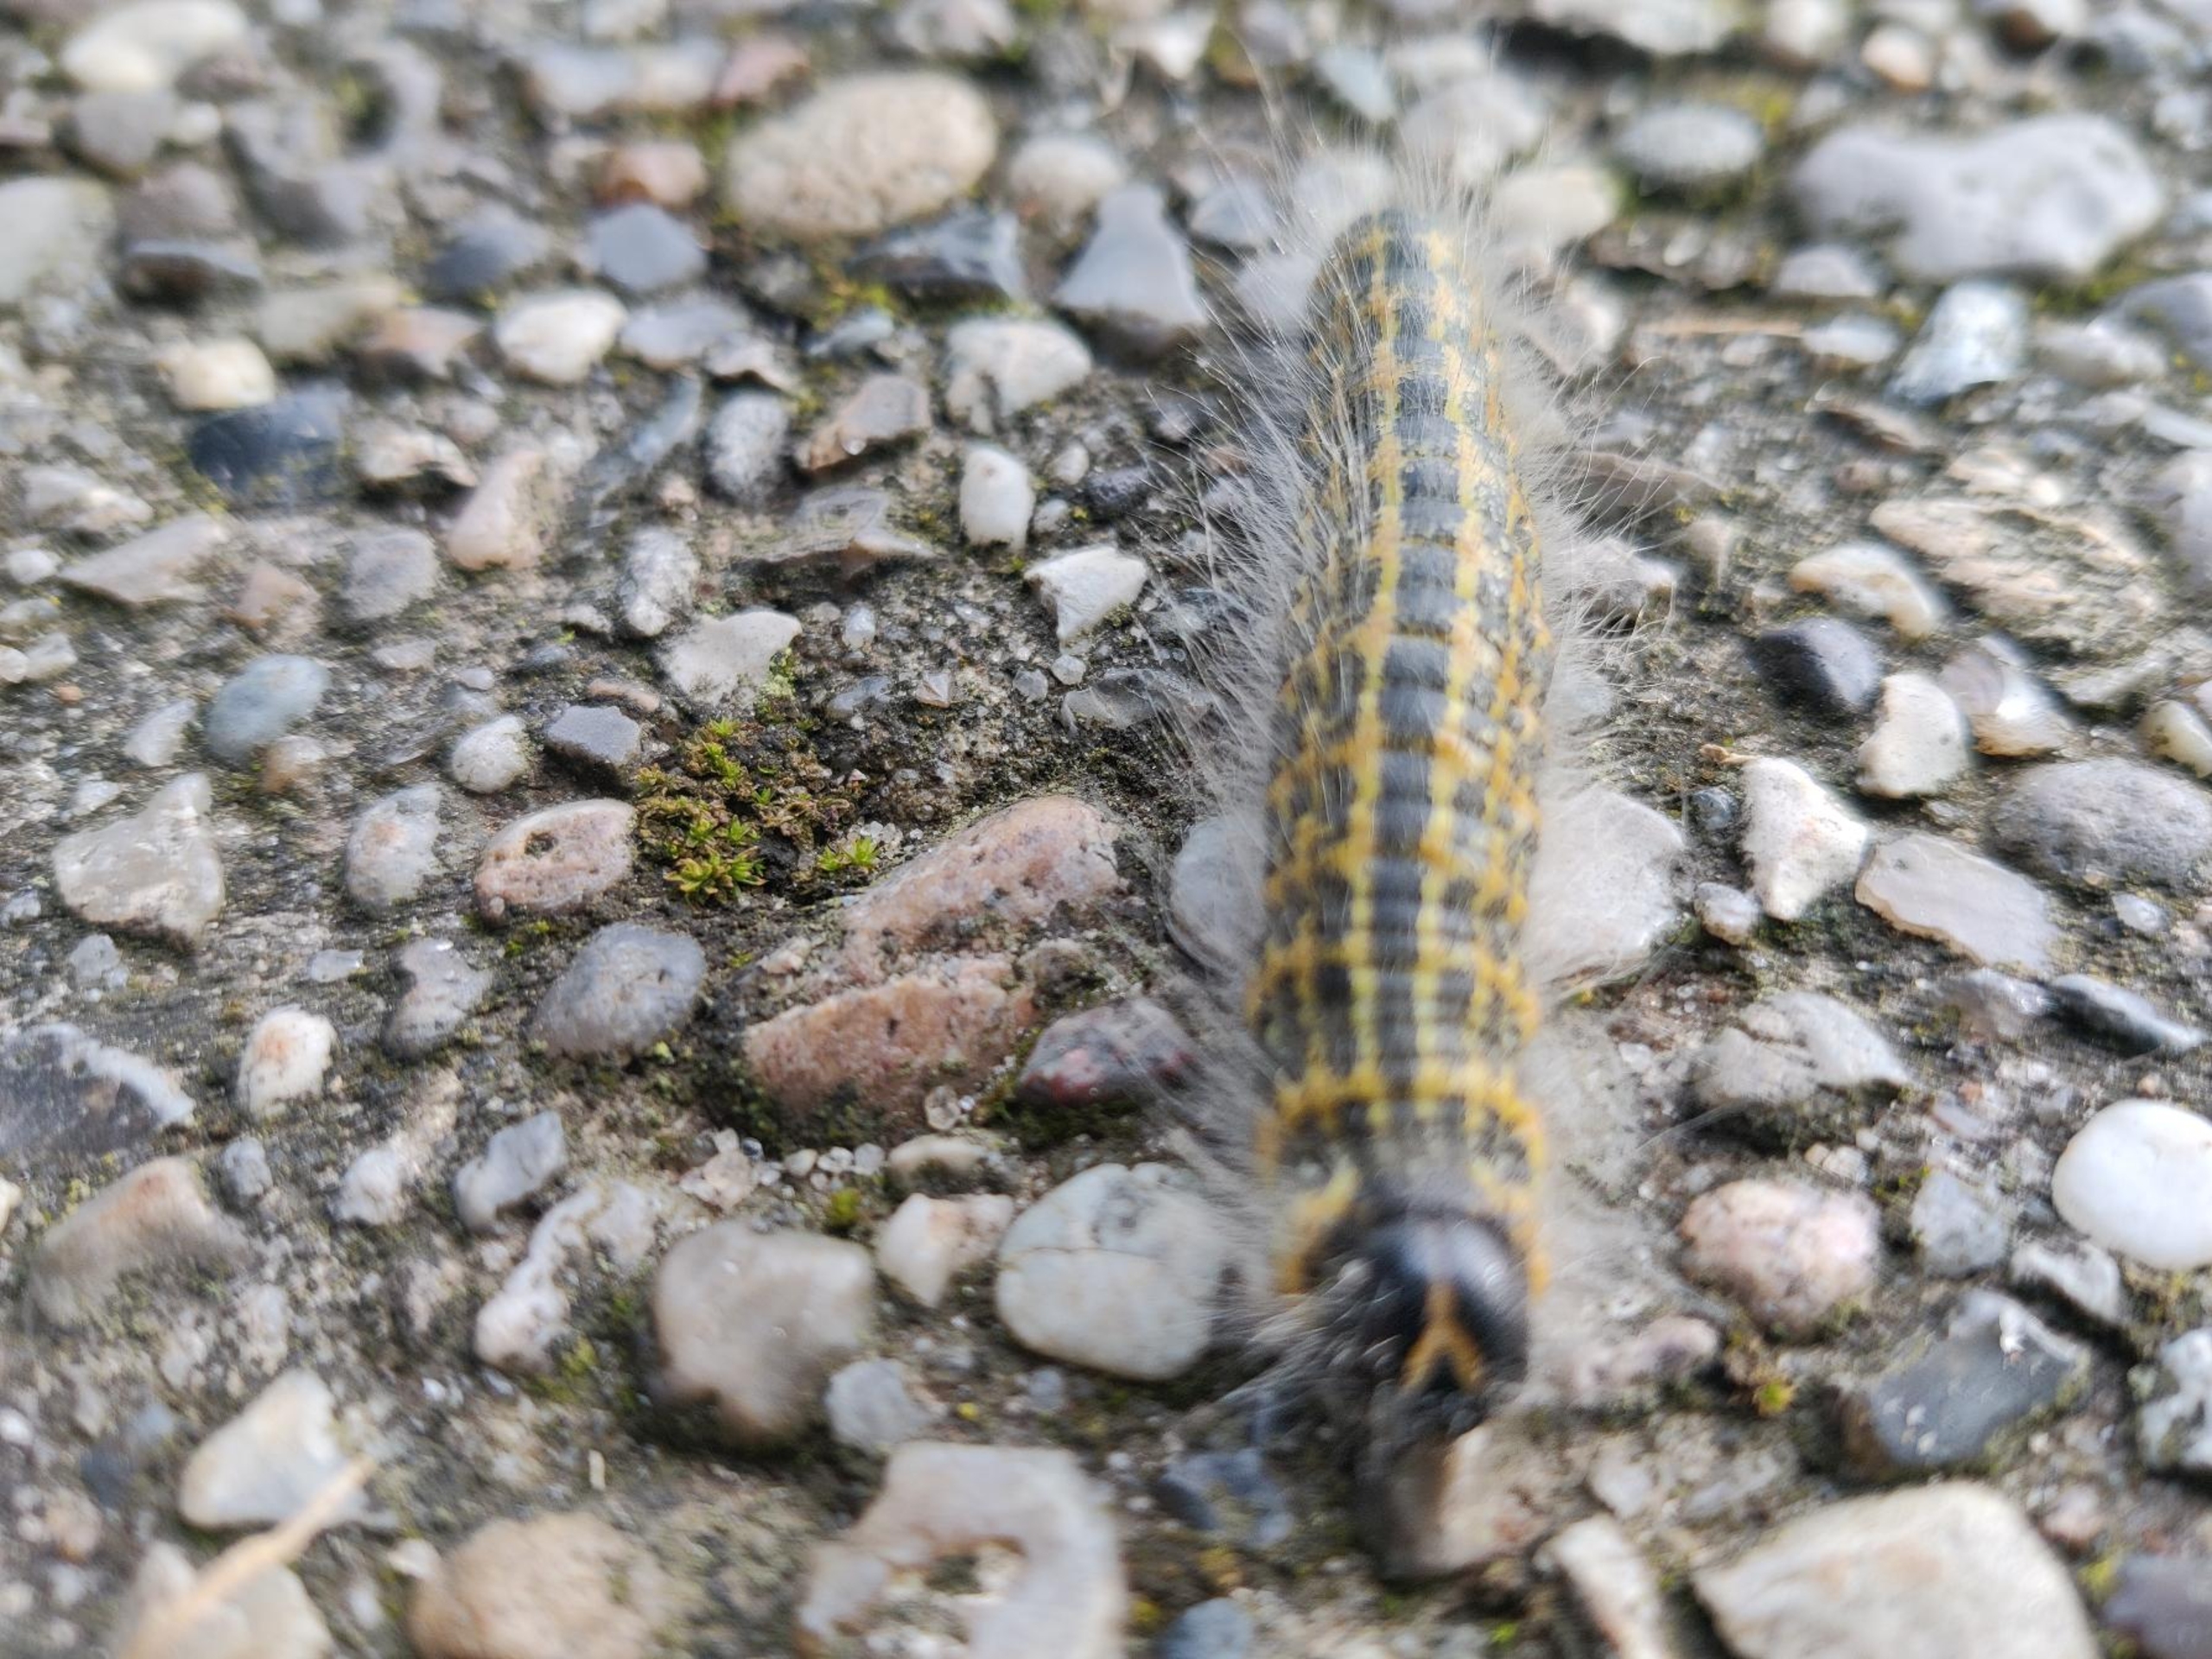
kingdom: Animalia
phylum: Arthropoda
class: Insecta
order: Lepidoptera
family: Notodontidae
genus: Phalera
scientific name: Phalera bucephala
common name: Måneplet
